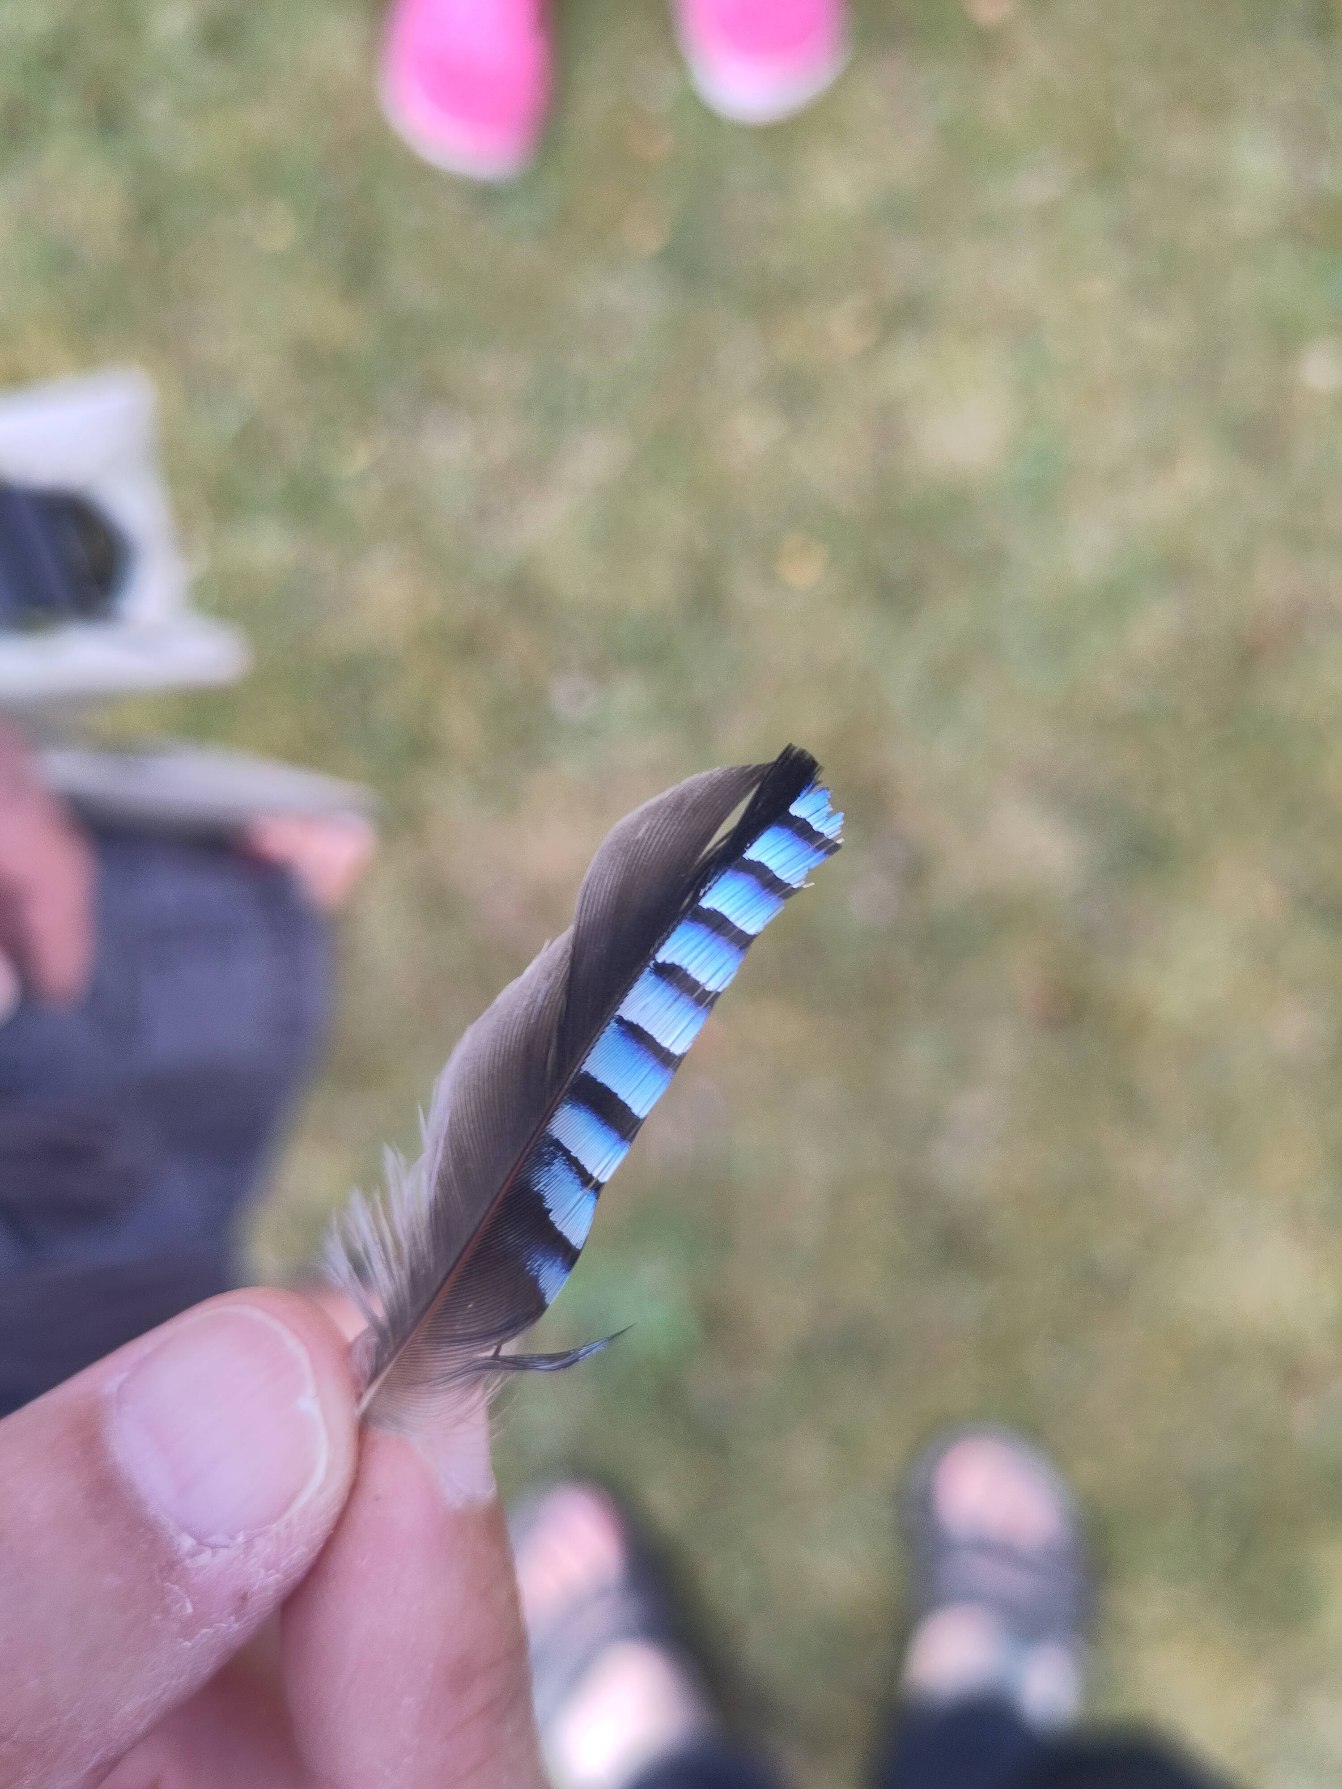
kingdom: Animalia
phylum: Chordata
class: Aves
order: Passeriformes
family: Corvidae
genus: Garrulus
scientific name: Garrulus glandarius
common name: Skovskade
